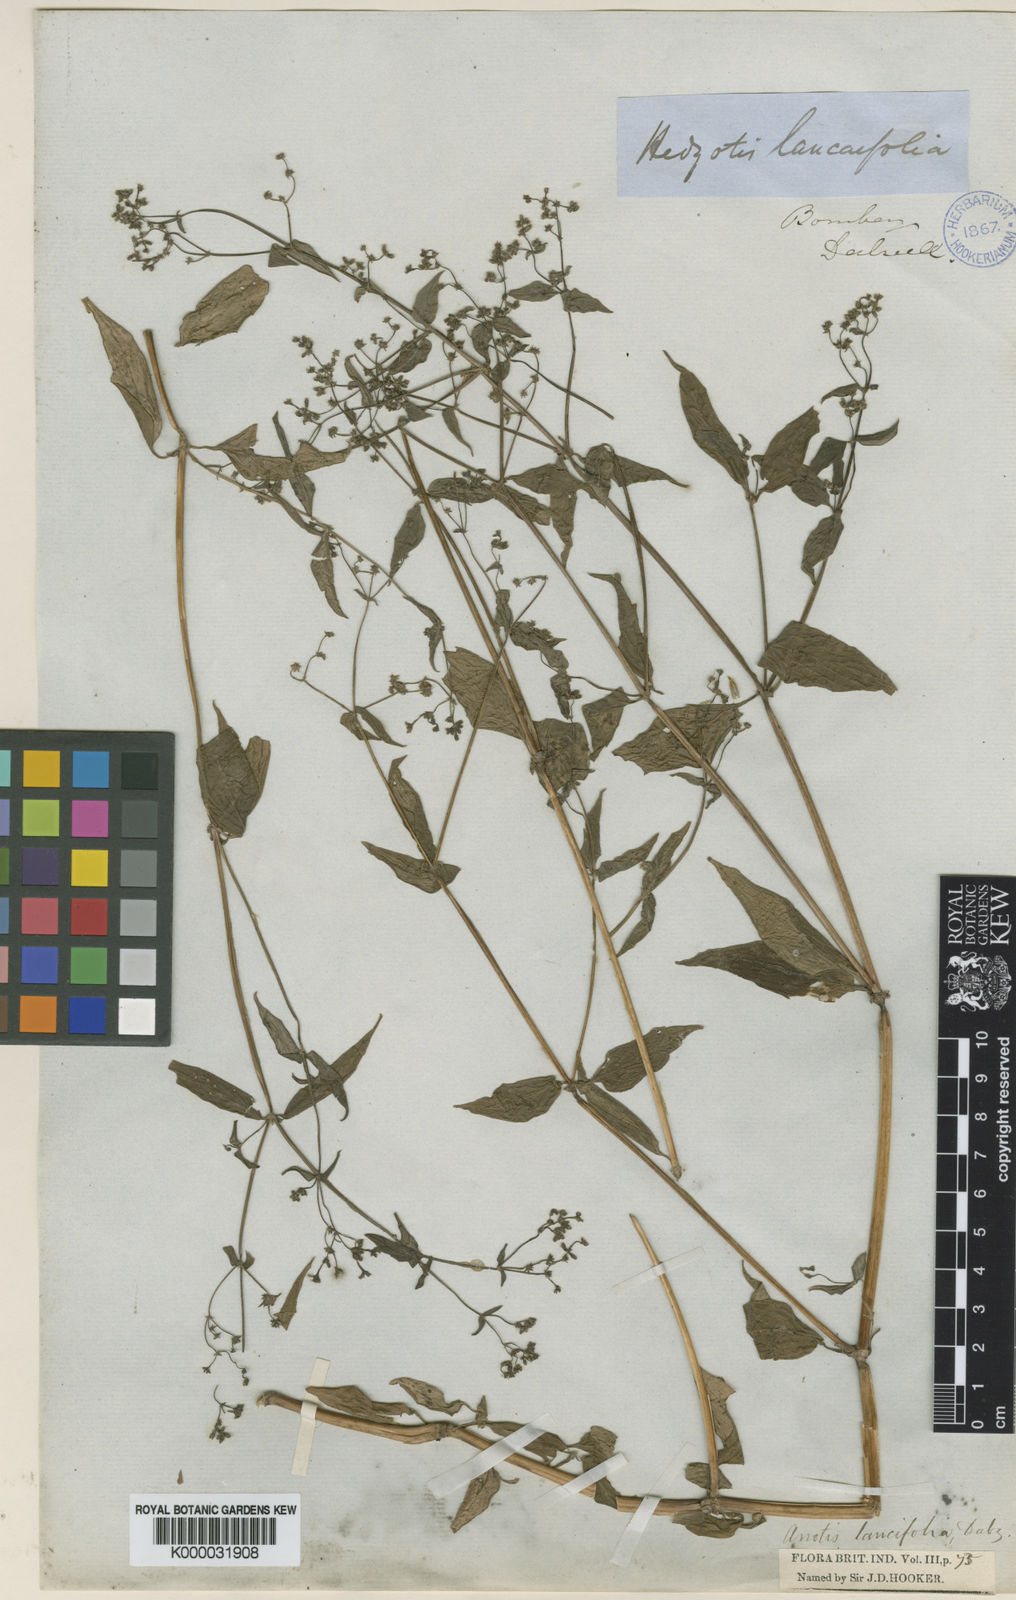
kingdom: Plantae
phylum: Tracheophyta
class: Magnoliopsida
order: Gentianales
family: Rubiaceae
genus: Neanotis
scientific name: Neanotis lancifolia
